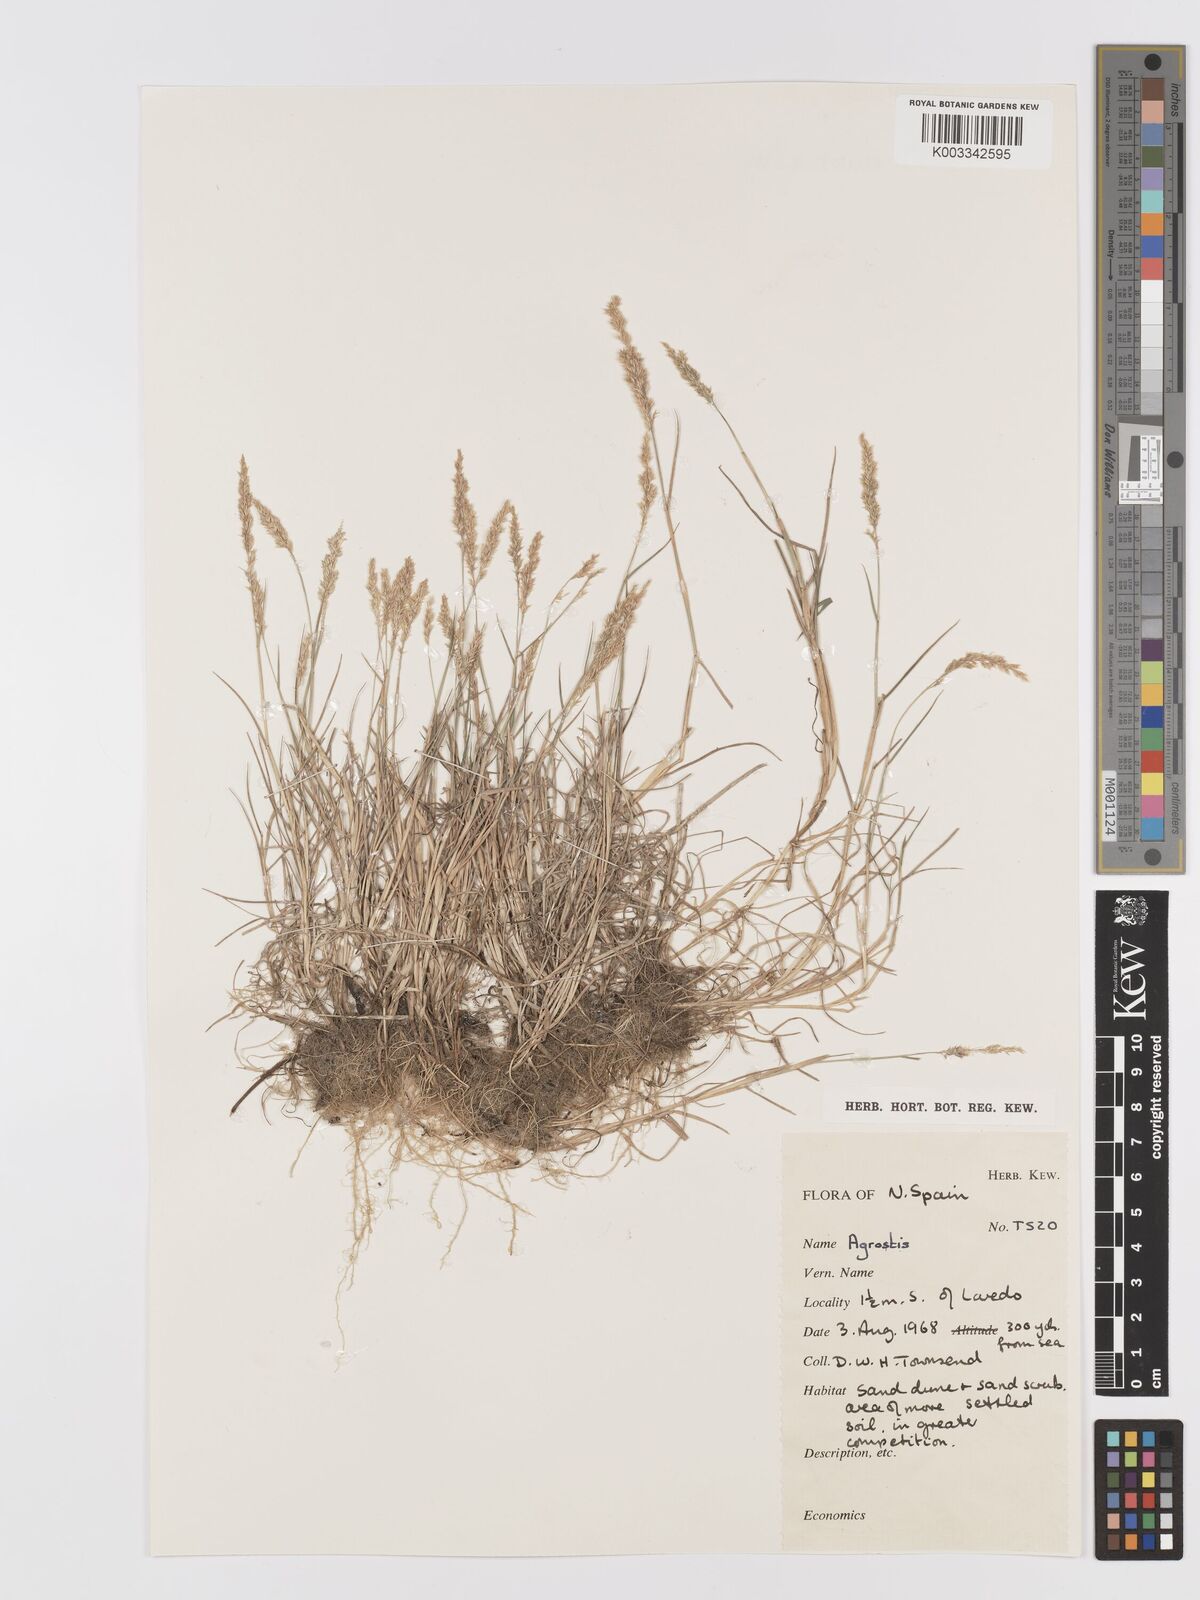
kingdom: Plantae
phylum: Tracheophyta
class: Liliopsida
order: Poales
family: Poaceae
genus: Agrostis
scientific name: Agrostis
